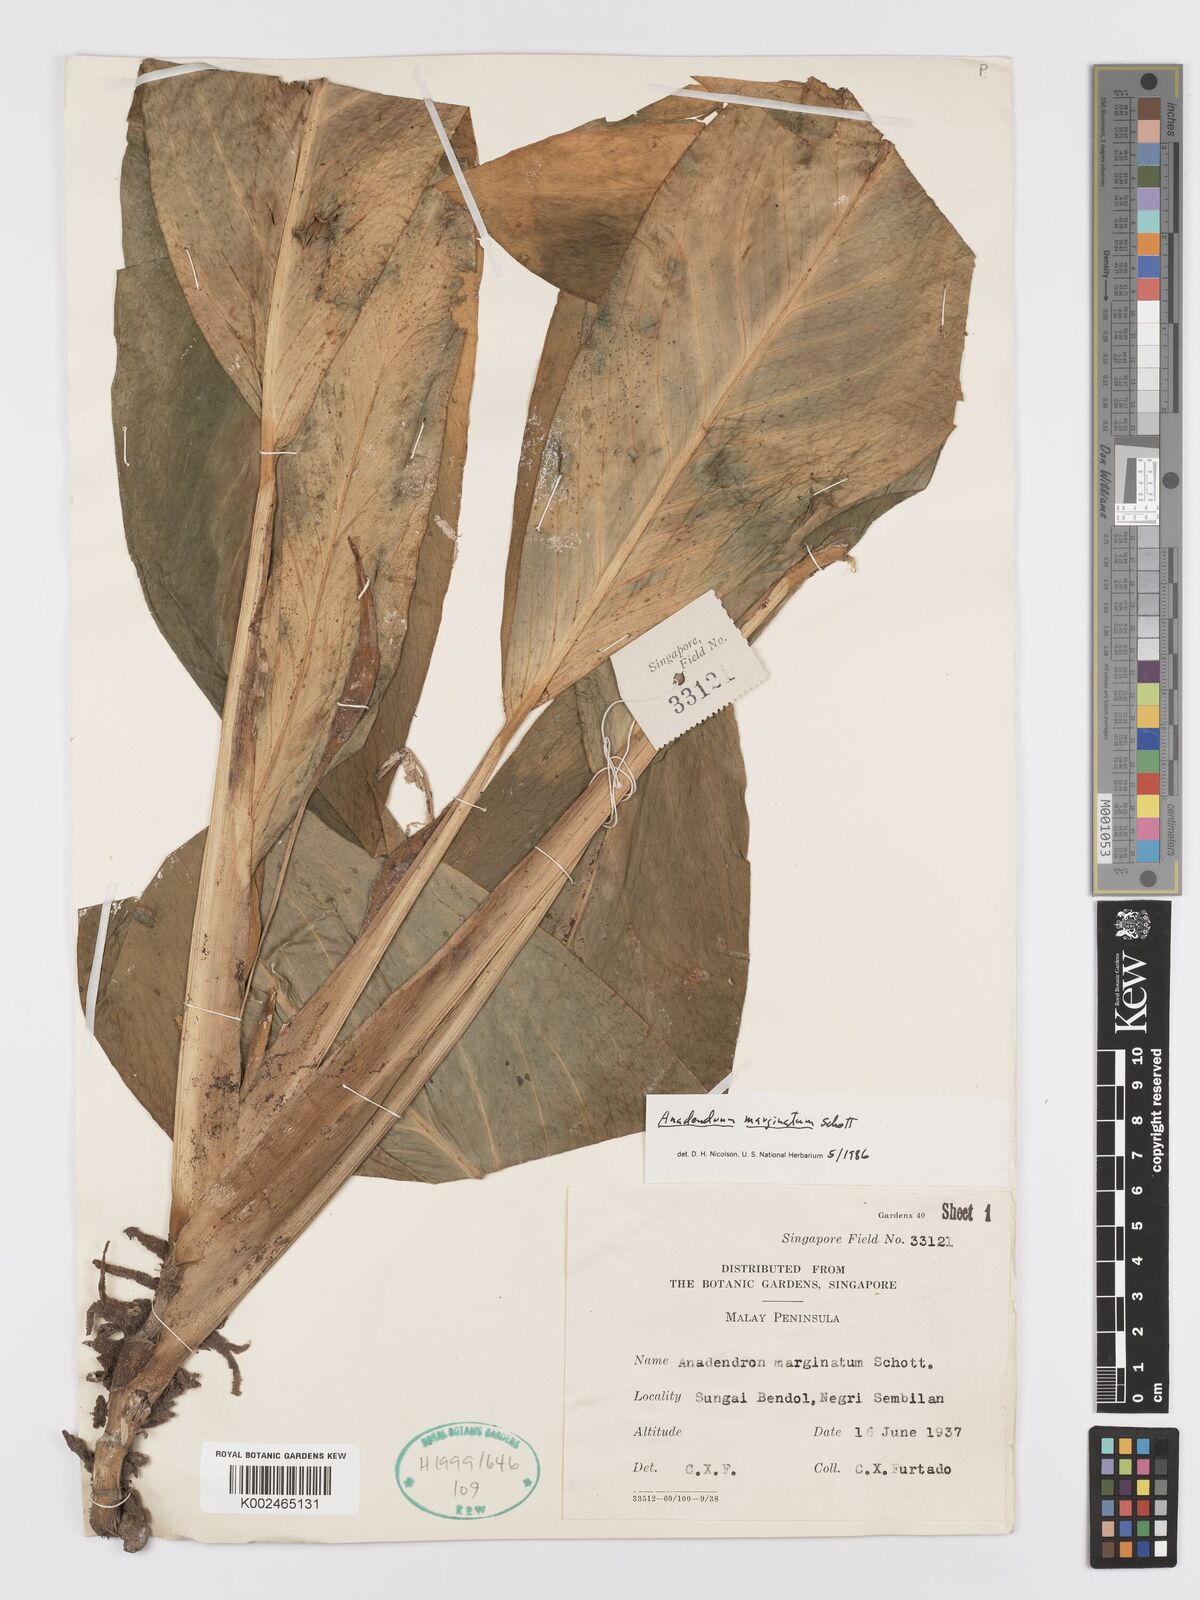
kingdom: Plantae
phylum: Tracheophyta
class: Liliopsida
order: Alismatales
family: Araceae
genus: Anadendrum
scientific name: Anadendrum marginatum
